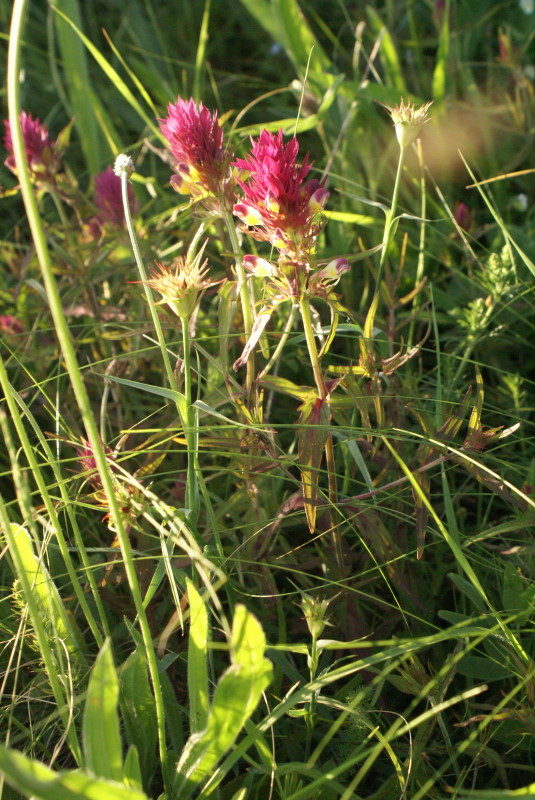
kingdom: Plantae
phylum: Tracheophyta
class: Magnoliopsida
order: Lamiales
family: Orobanchaceae
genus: Melampyrum
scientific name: Melampyrum arvense
